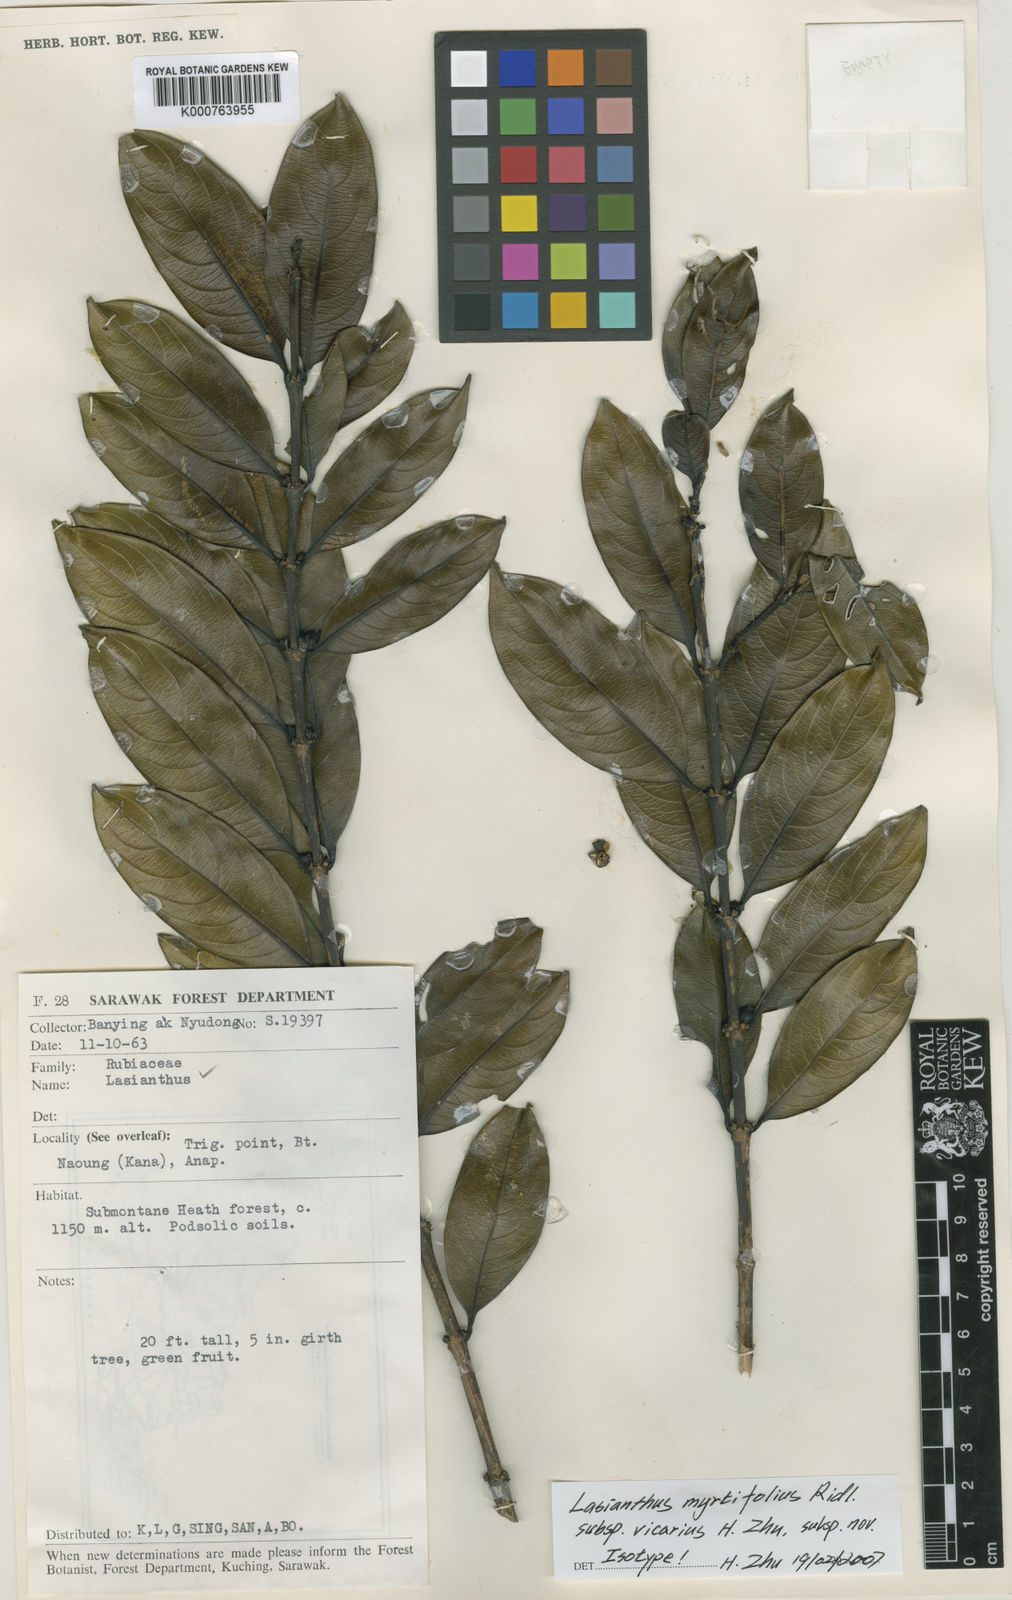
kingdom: Plantae
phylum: Tracheophyta
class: Magnoliopsida
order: Gentianales
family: Rubiaceae
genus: Lasianthus
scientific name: Lasianthus myrtifolius
